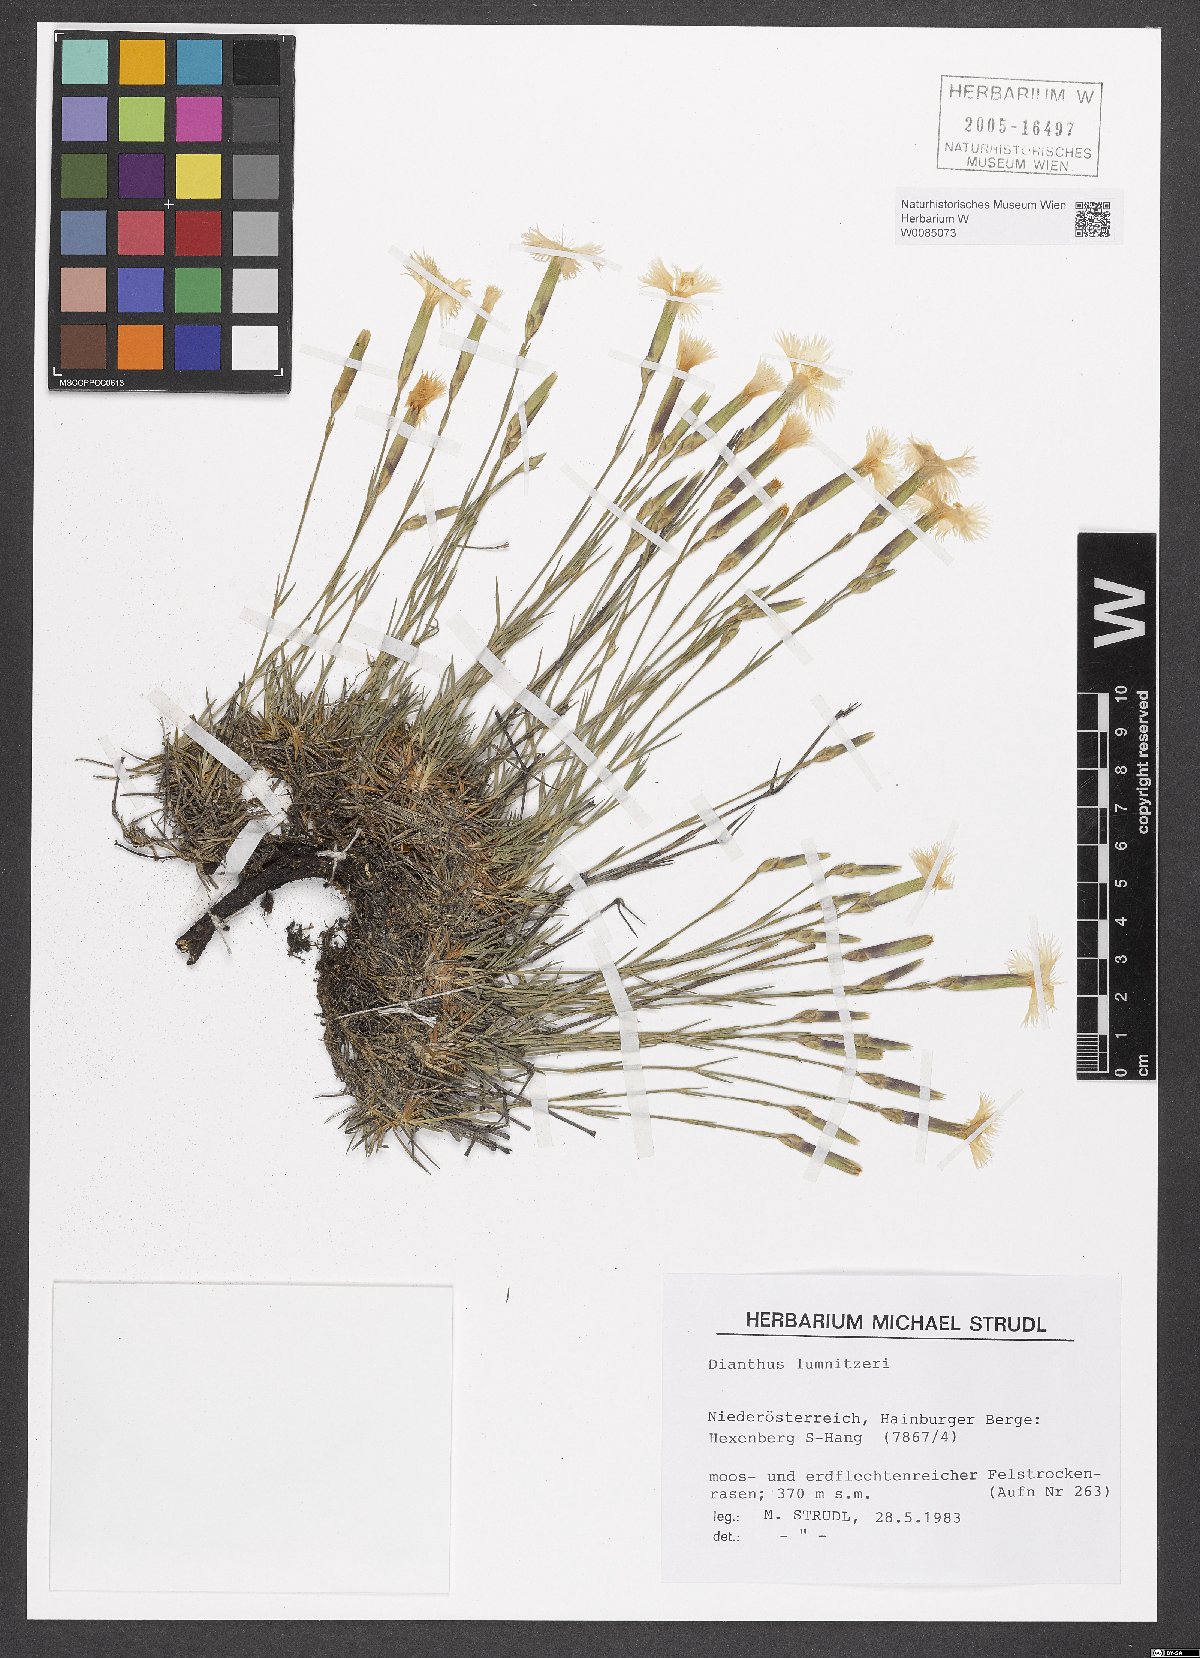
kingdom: Plantae
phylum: Tracheophyta
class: Magnoliopsida
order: Caryophyllales
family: Caryophyllaceae
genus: Dianthus
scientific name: Dianthus praecox
